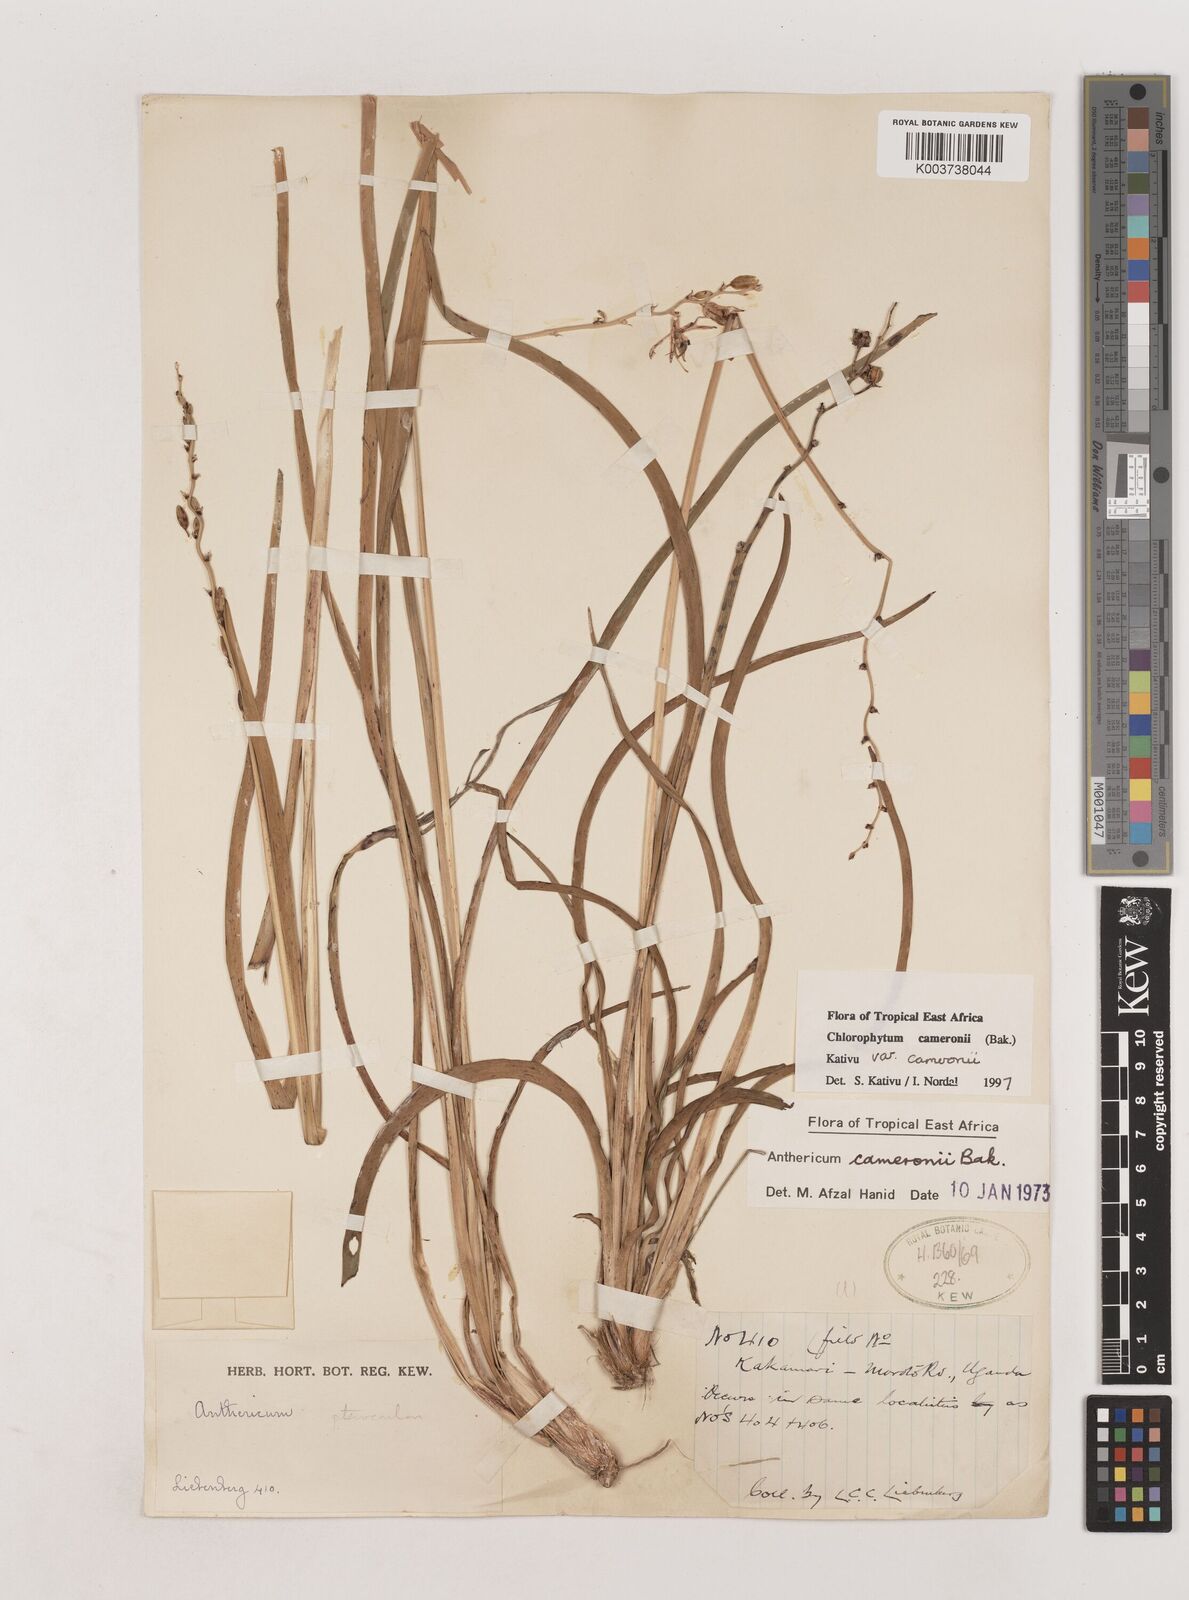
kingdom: Plantae
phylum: Tracheophyta
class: Liliopsida
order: Asparagales
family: Asparagaceae
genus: Chlorophytum
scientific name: Chlorophytum cameronii
